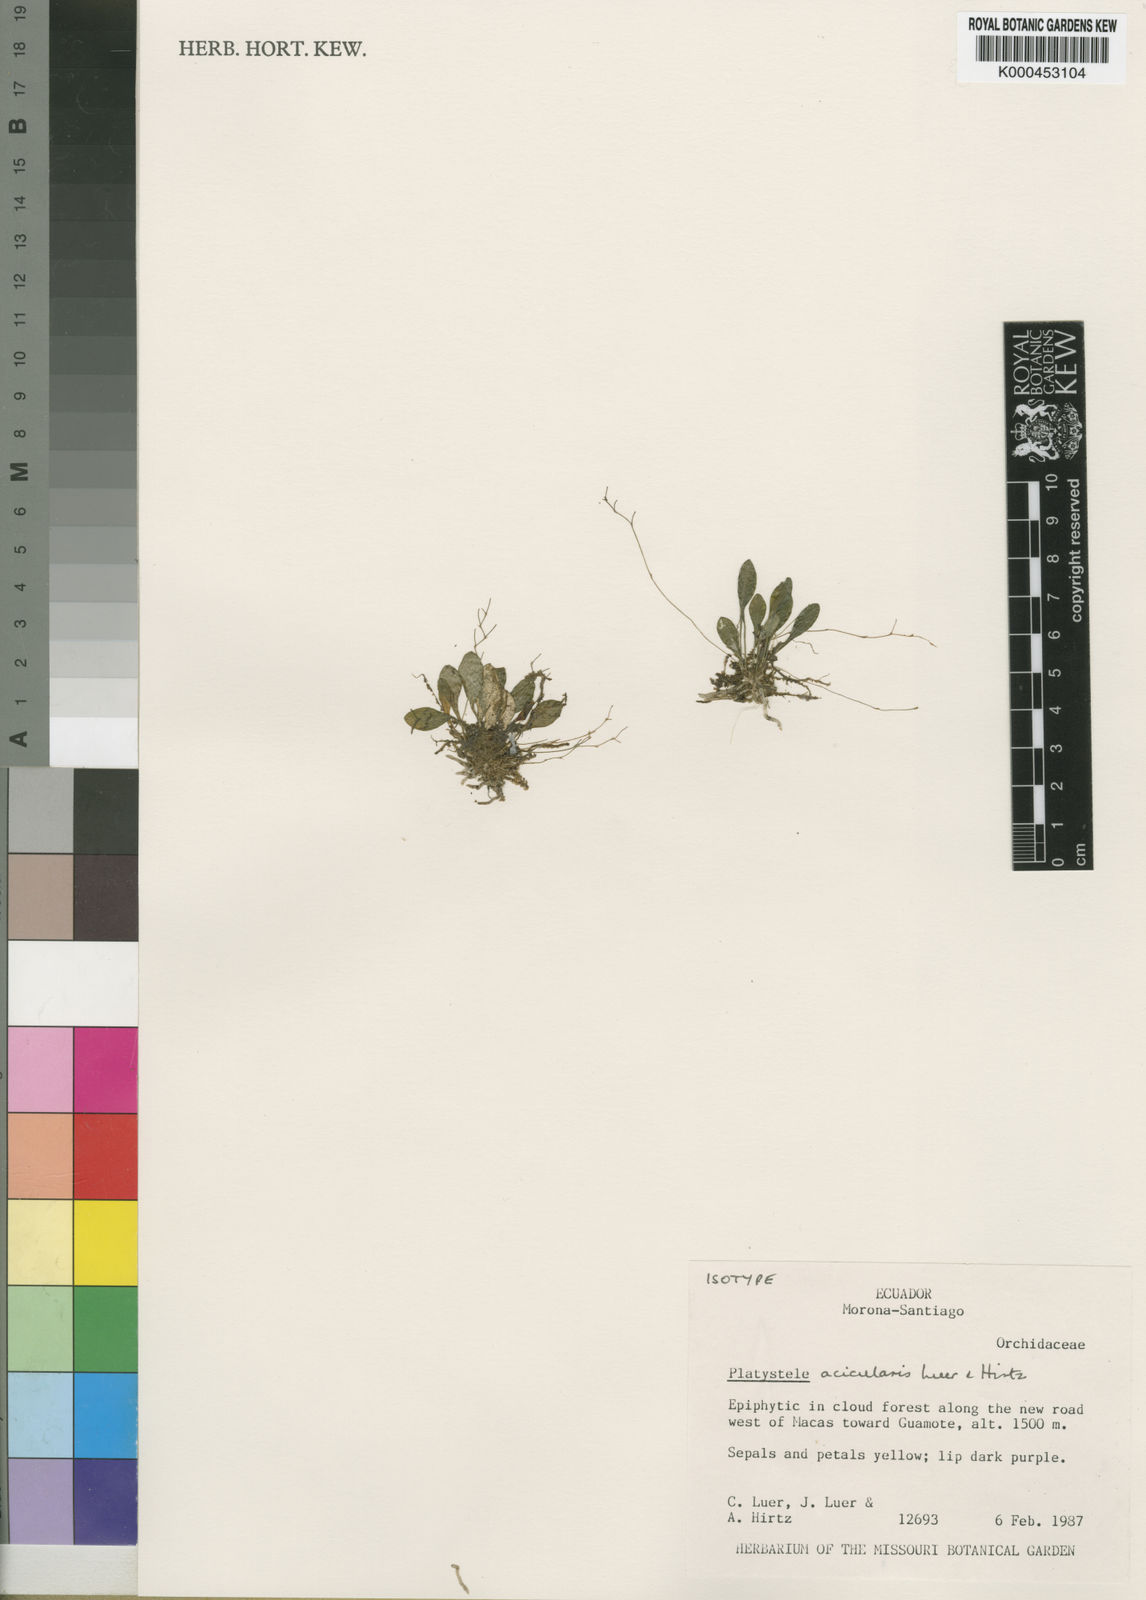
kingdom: Plantae
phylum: Tracheophyta
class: Liliopsida
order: Asparagales
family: Orchidaceae
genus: Platystele
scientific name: Platystele acicularis
